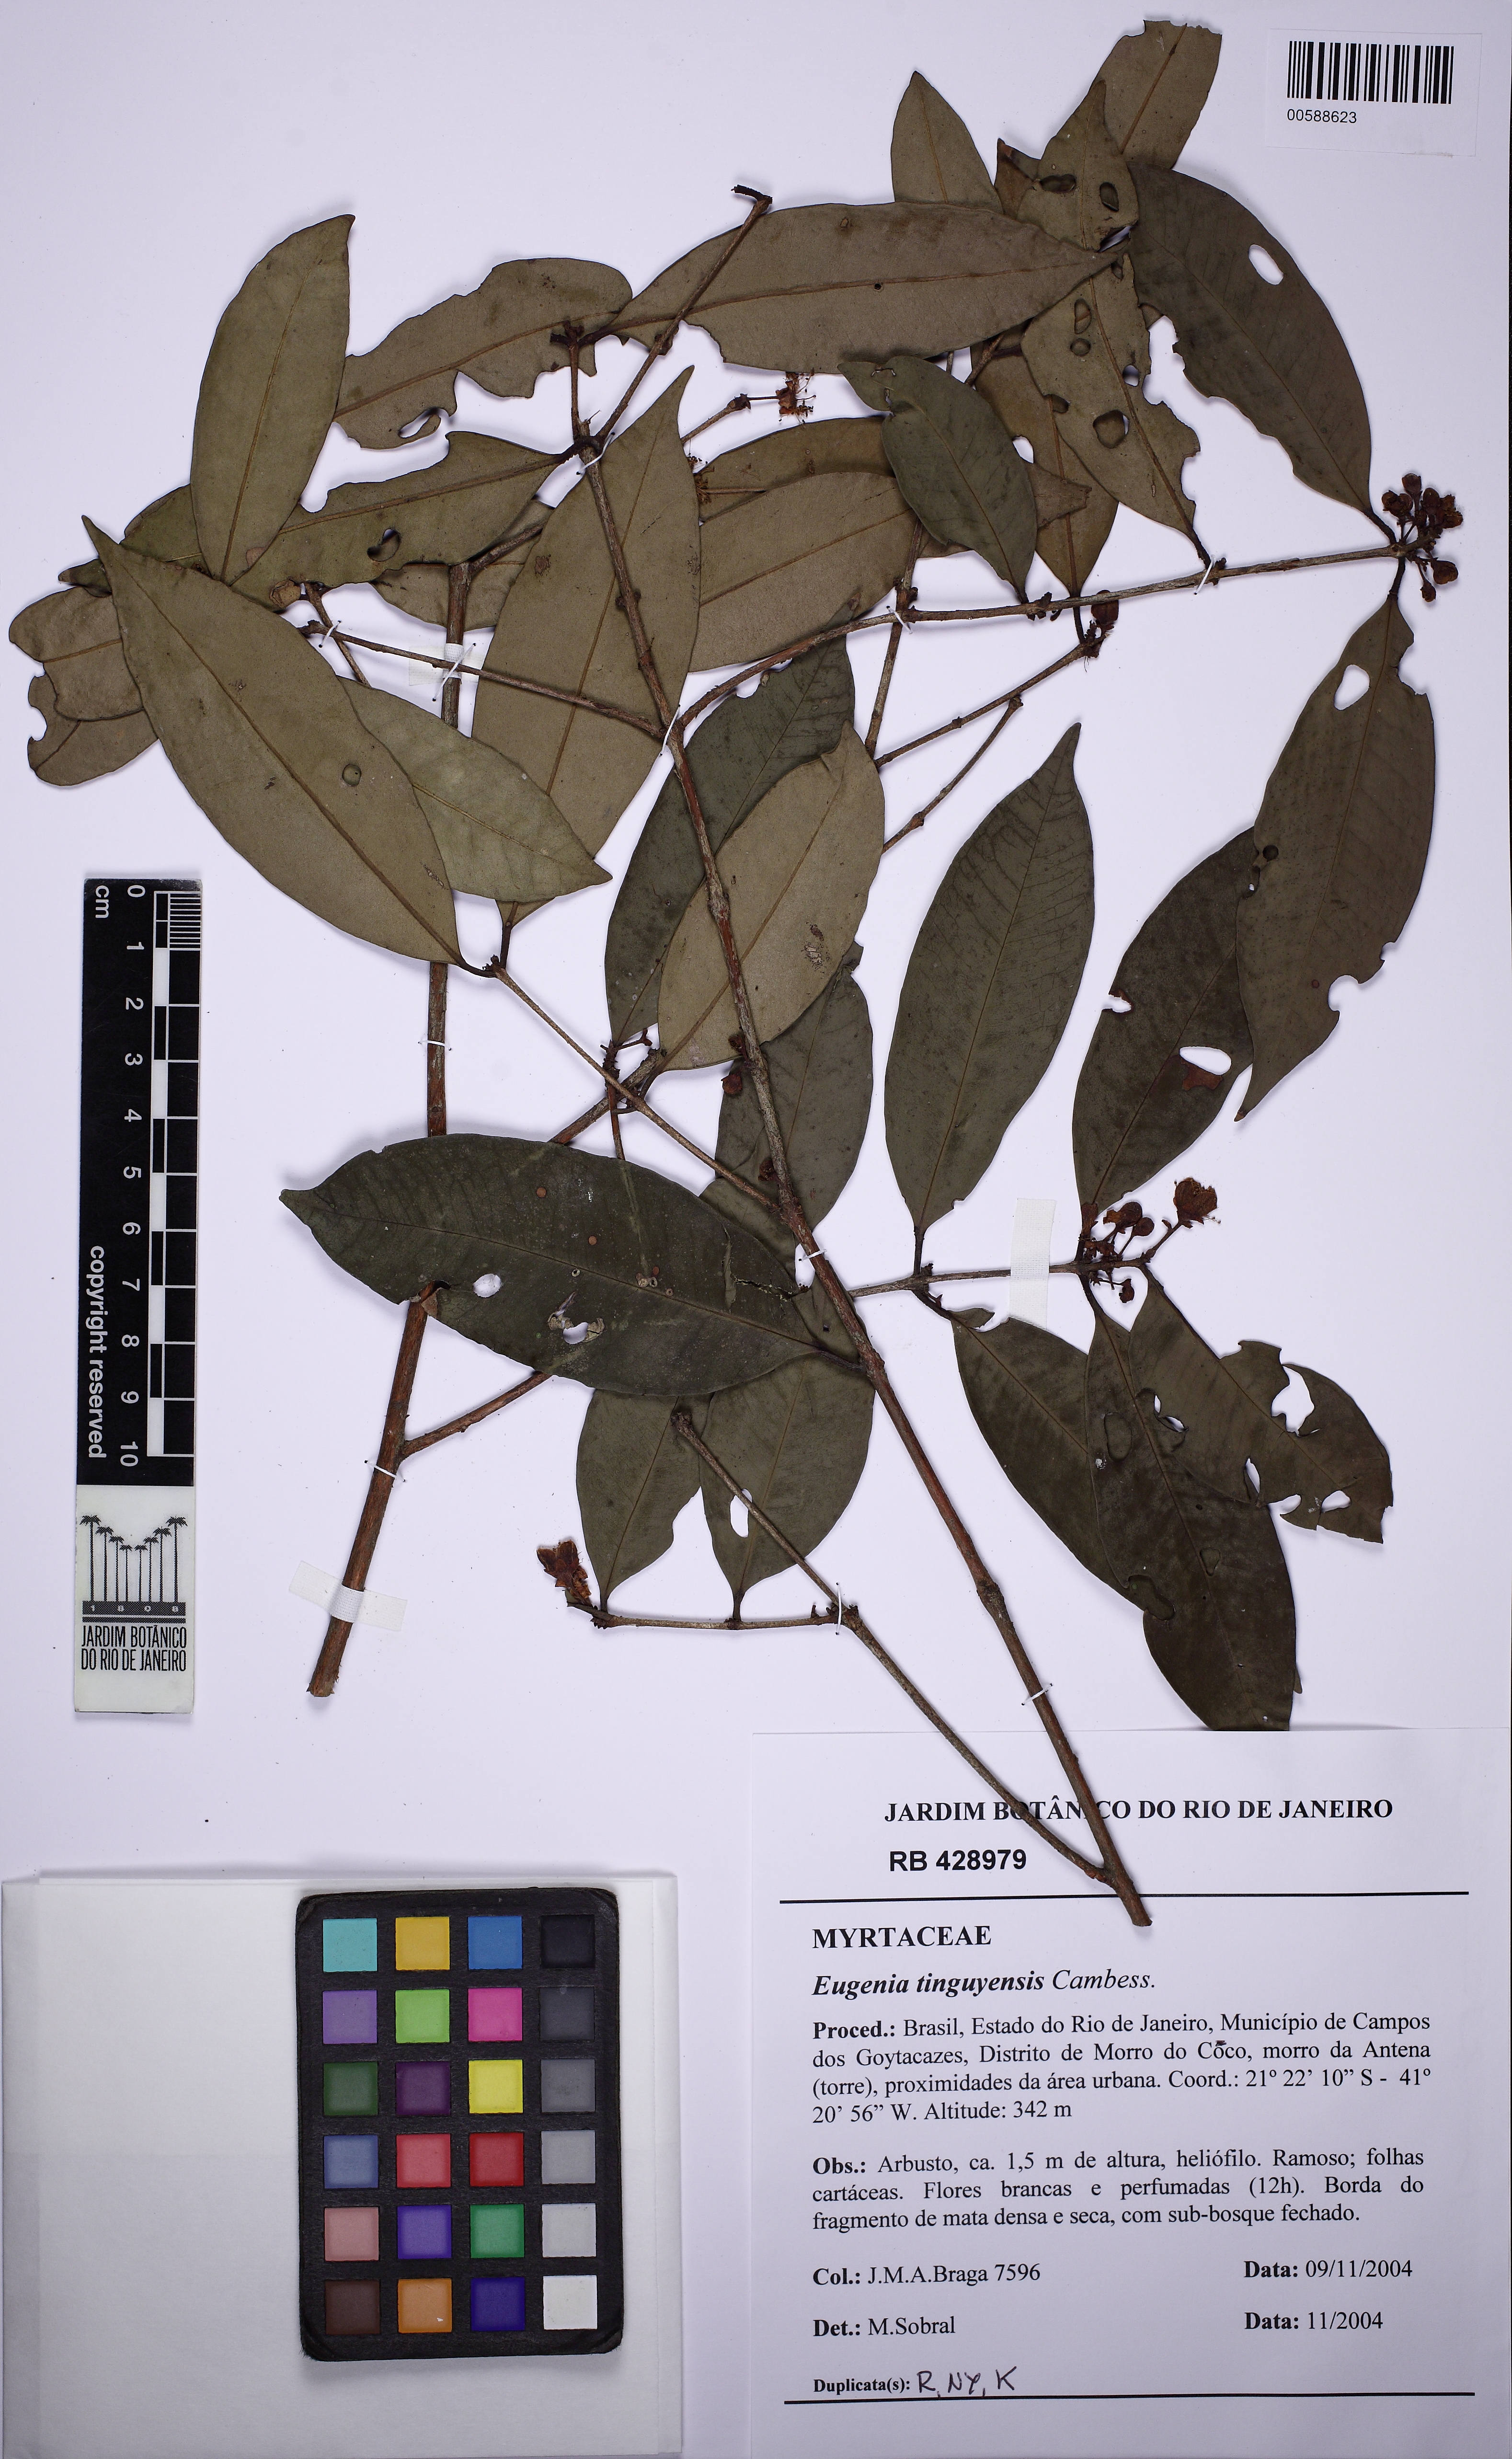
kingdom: Plantae
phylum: Tracheophyta
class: Magnoliopsida
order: Myrtales
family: Myrtaceae
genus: Eugenia
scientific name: Eugenia pisiformis
